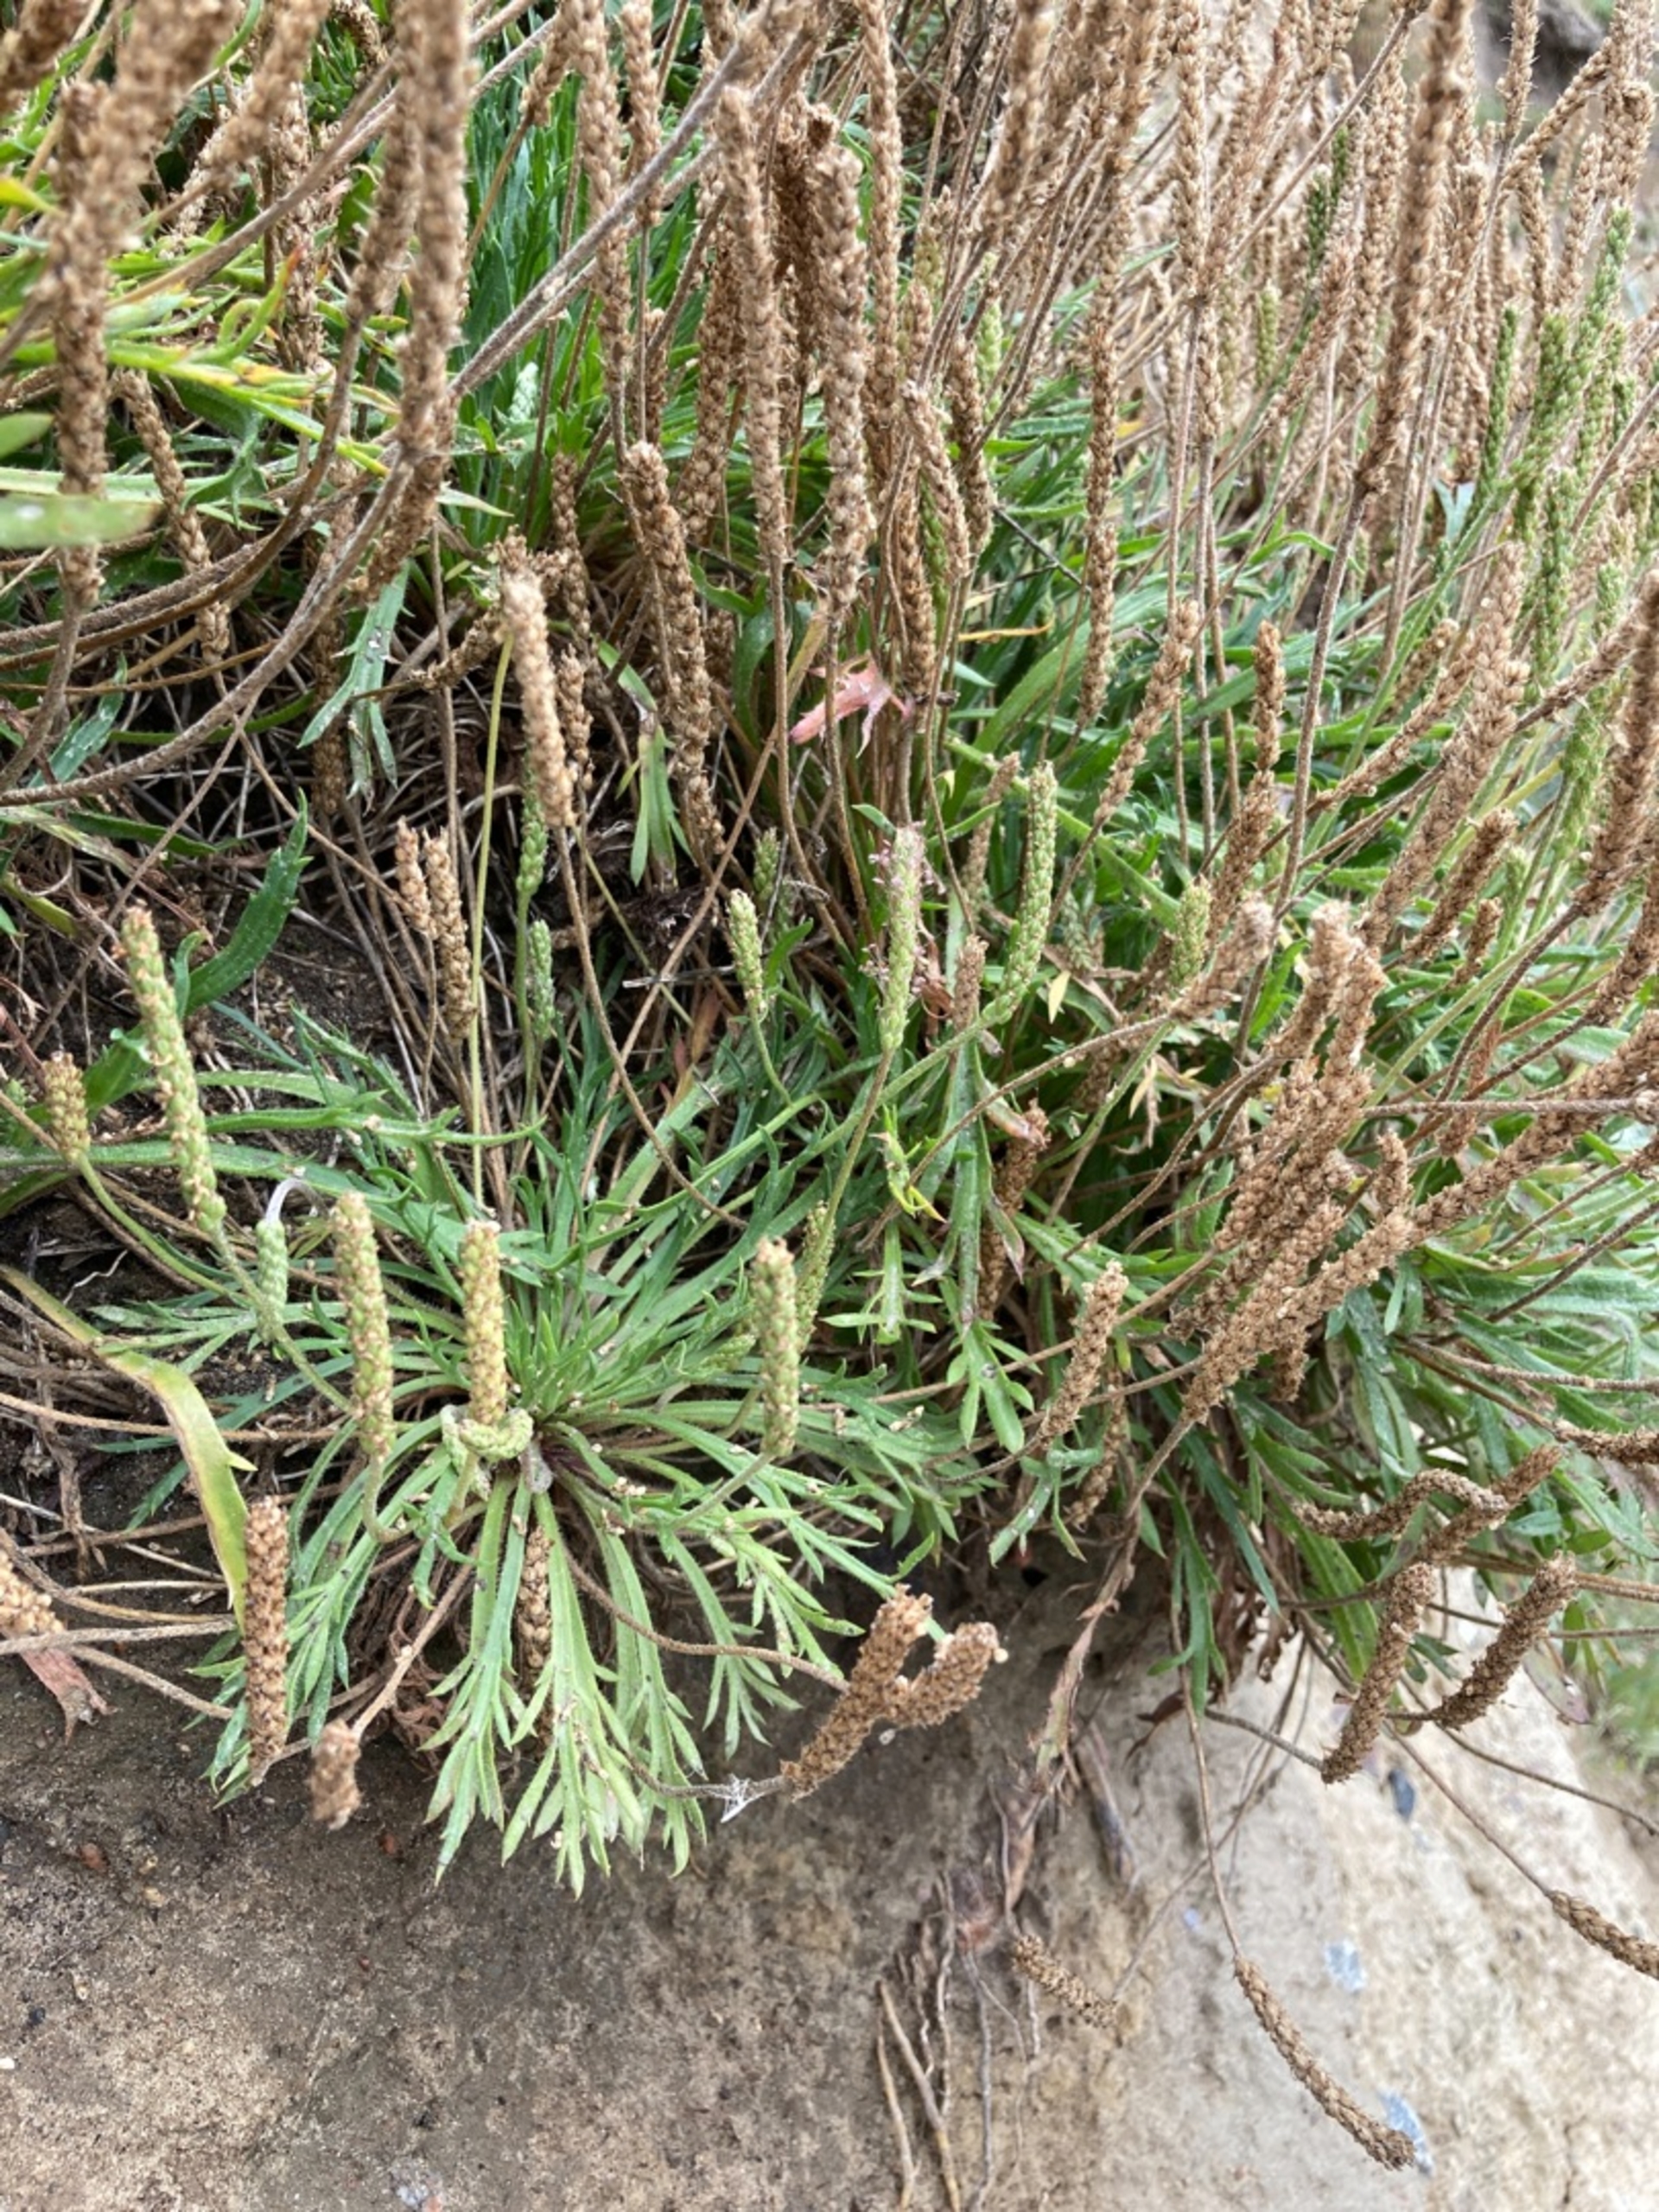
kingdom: Plantae
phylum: Tracheophyta
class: Magnoliopsida
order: Lamiales
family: Plantaginaceae
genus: Plantago
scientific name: Plantago coronopus
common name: Fliget vejbred
